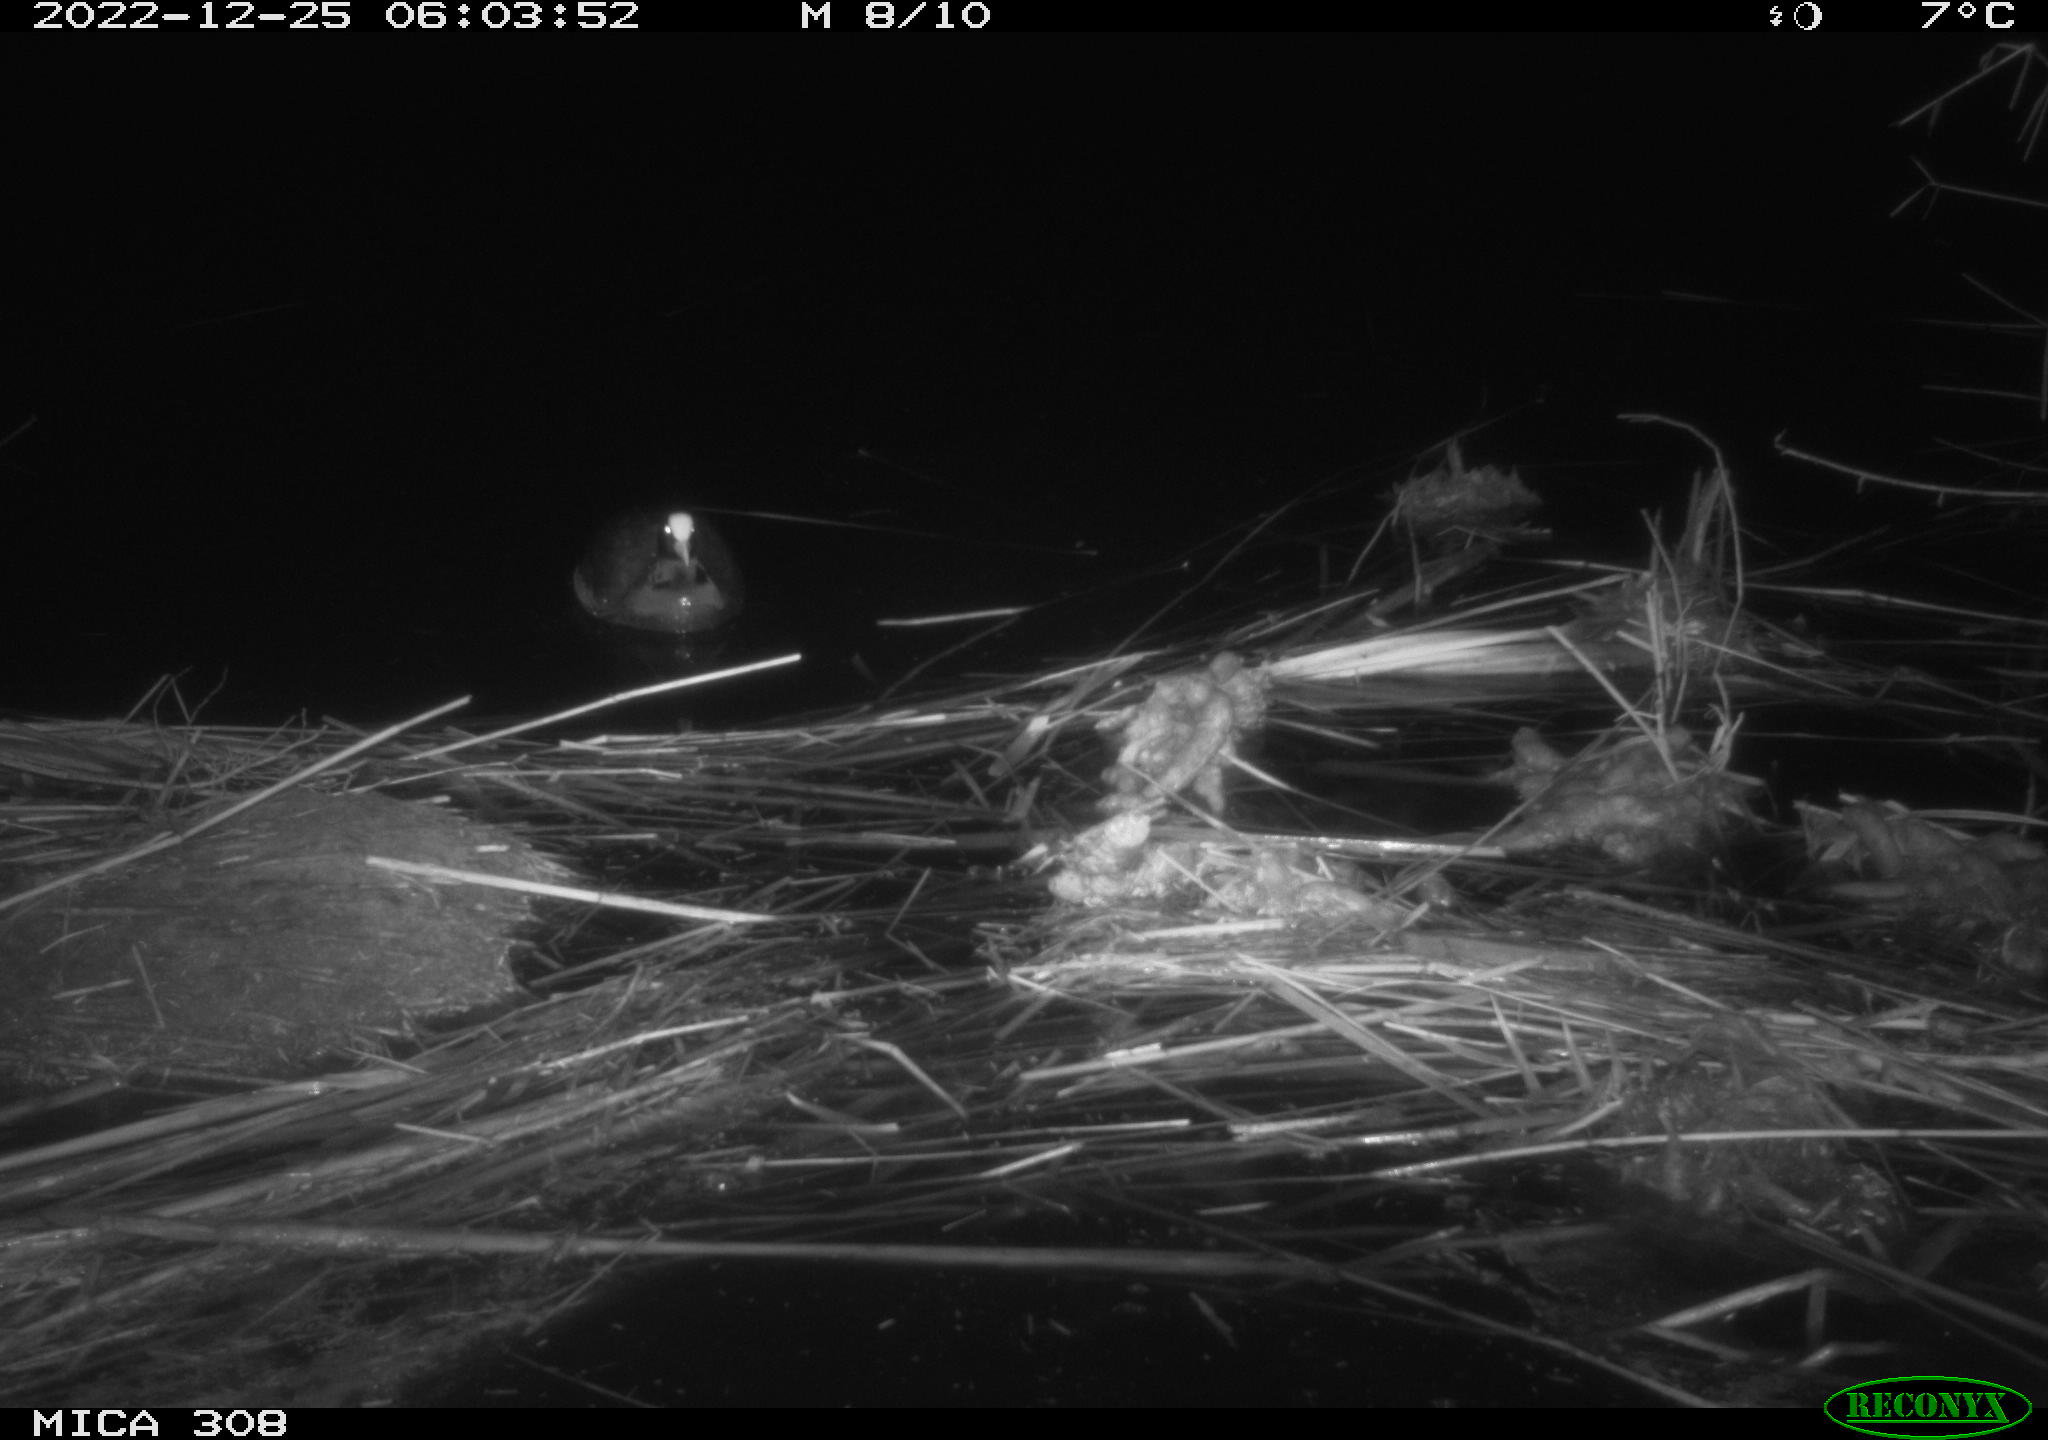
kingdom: Animalia
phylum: Chordata
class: Aves
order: Gruiformes
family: Rallidae
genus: Fulica
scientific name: Fulica atra
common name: Eurasian coot
